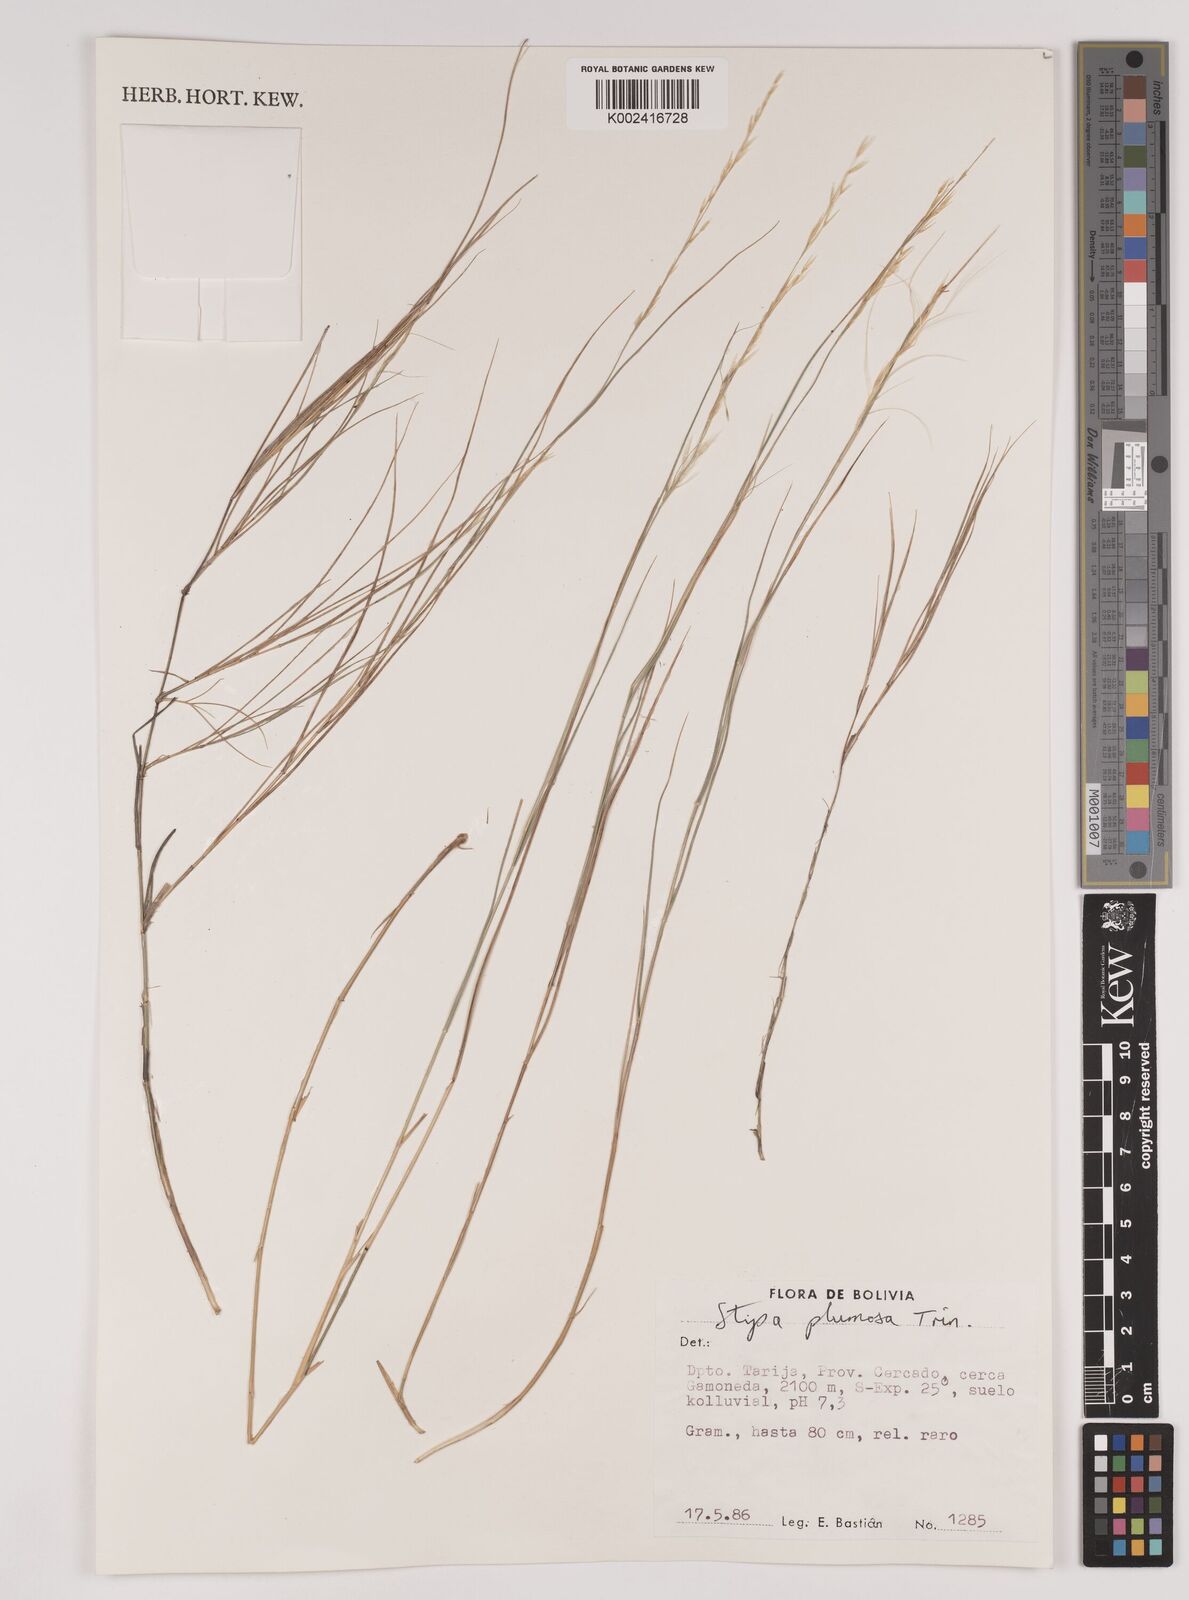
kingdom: Plantae
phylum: Tracheophyta
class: Liliopsida
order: Poales
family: Poaceae
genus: Stipa
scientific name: Stipa plumosa
